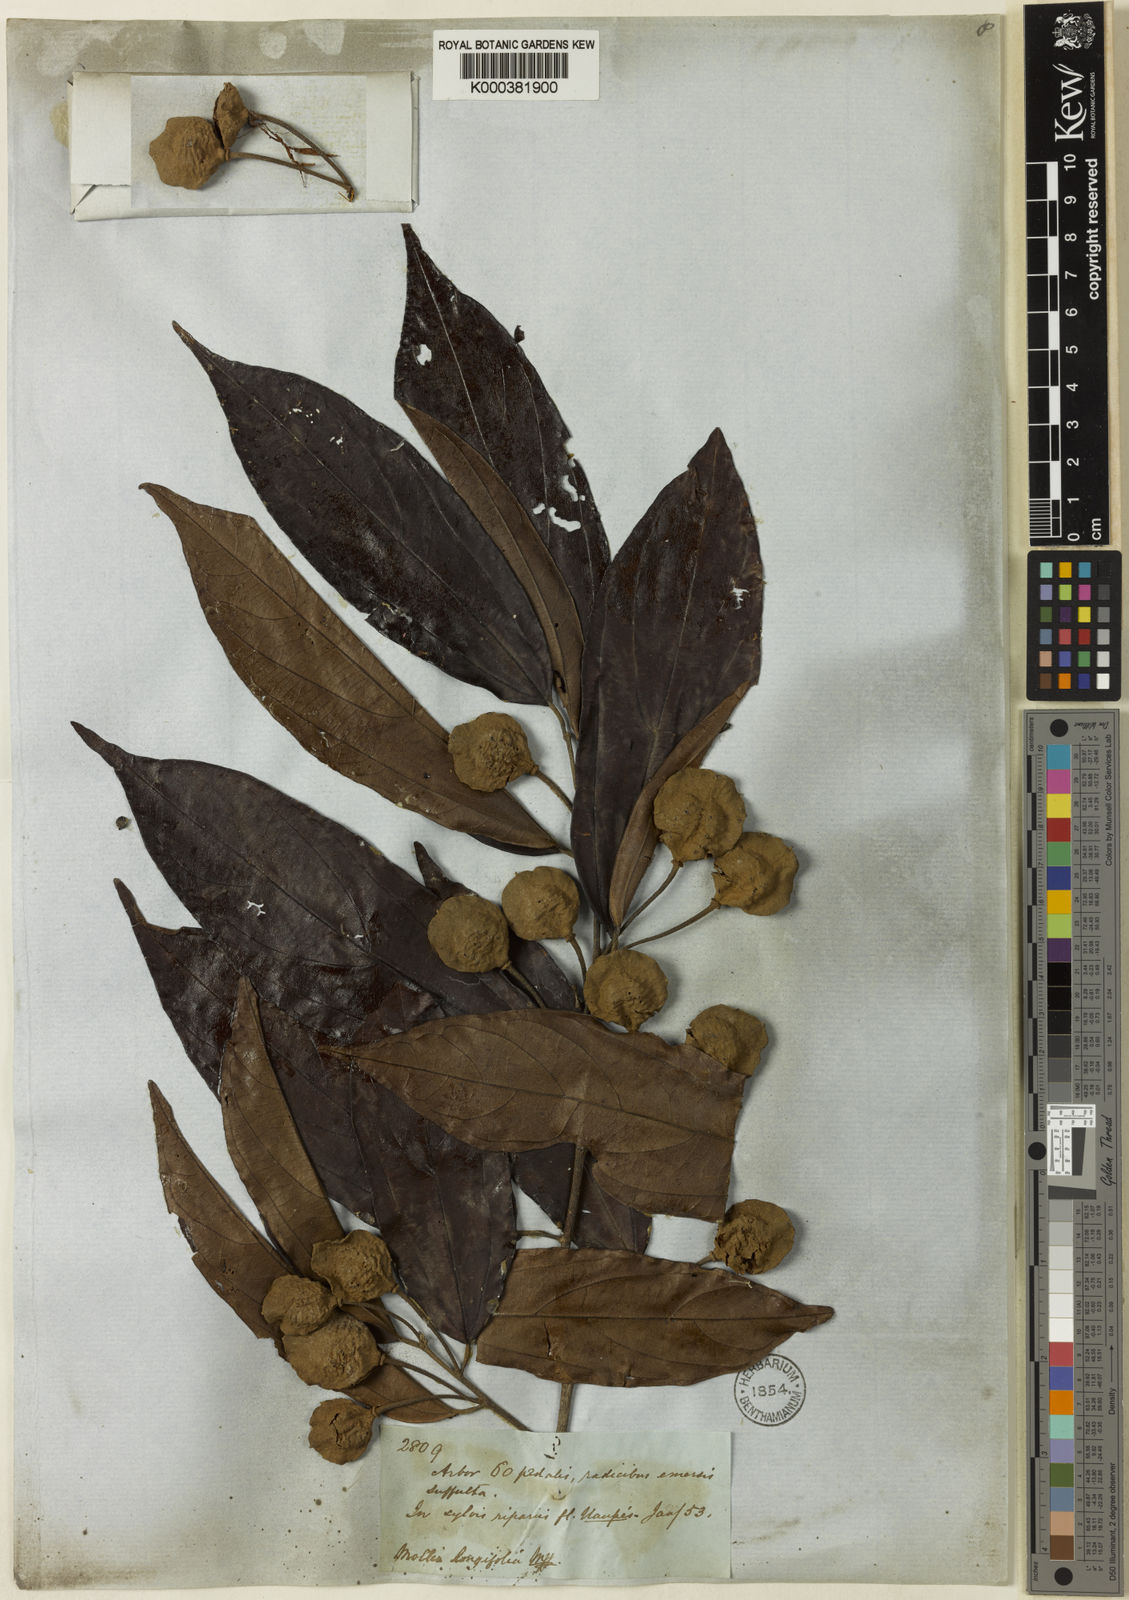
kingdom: Plantae
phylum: Tracheophyta
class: Magnoliopsida
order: Malvales
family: Malvaceae
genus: Mollia
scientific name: Mollia longifolia
